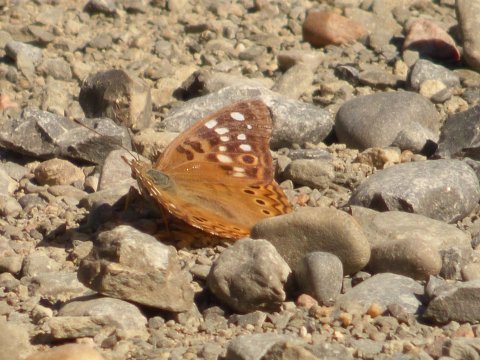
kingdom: Animalia
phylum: Arthropoda
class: Insecta
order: Lepidoptera
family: Nymphalidae
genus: Asterocampa
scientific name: Asterocampa celtis
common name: Hackberry Emperor
